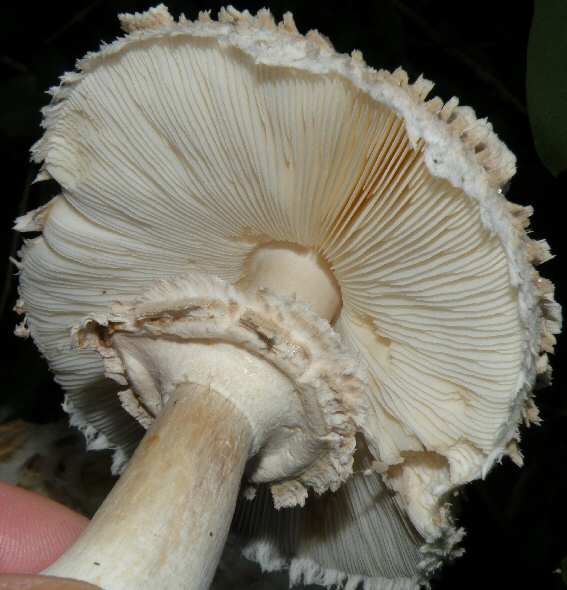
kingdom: Fungi
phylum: Basidiomycota
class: Agaricomycetes
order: Agaricales
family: Agaricaceae
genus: Chlorophyllum
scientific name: Chlorophyllum rhacodes
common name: ægte rabarberhat
